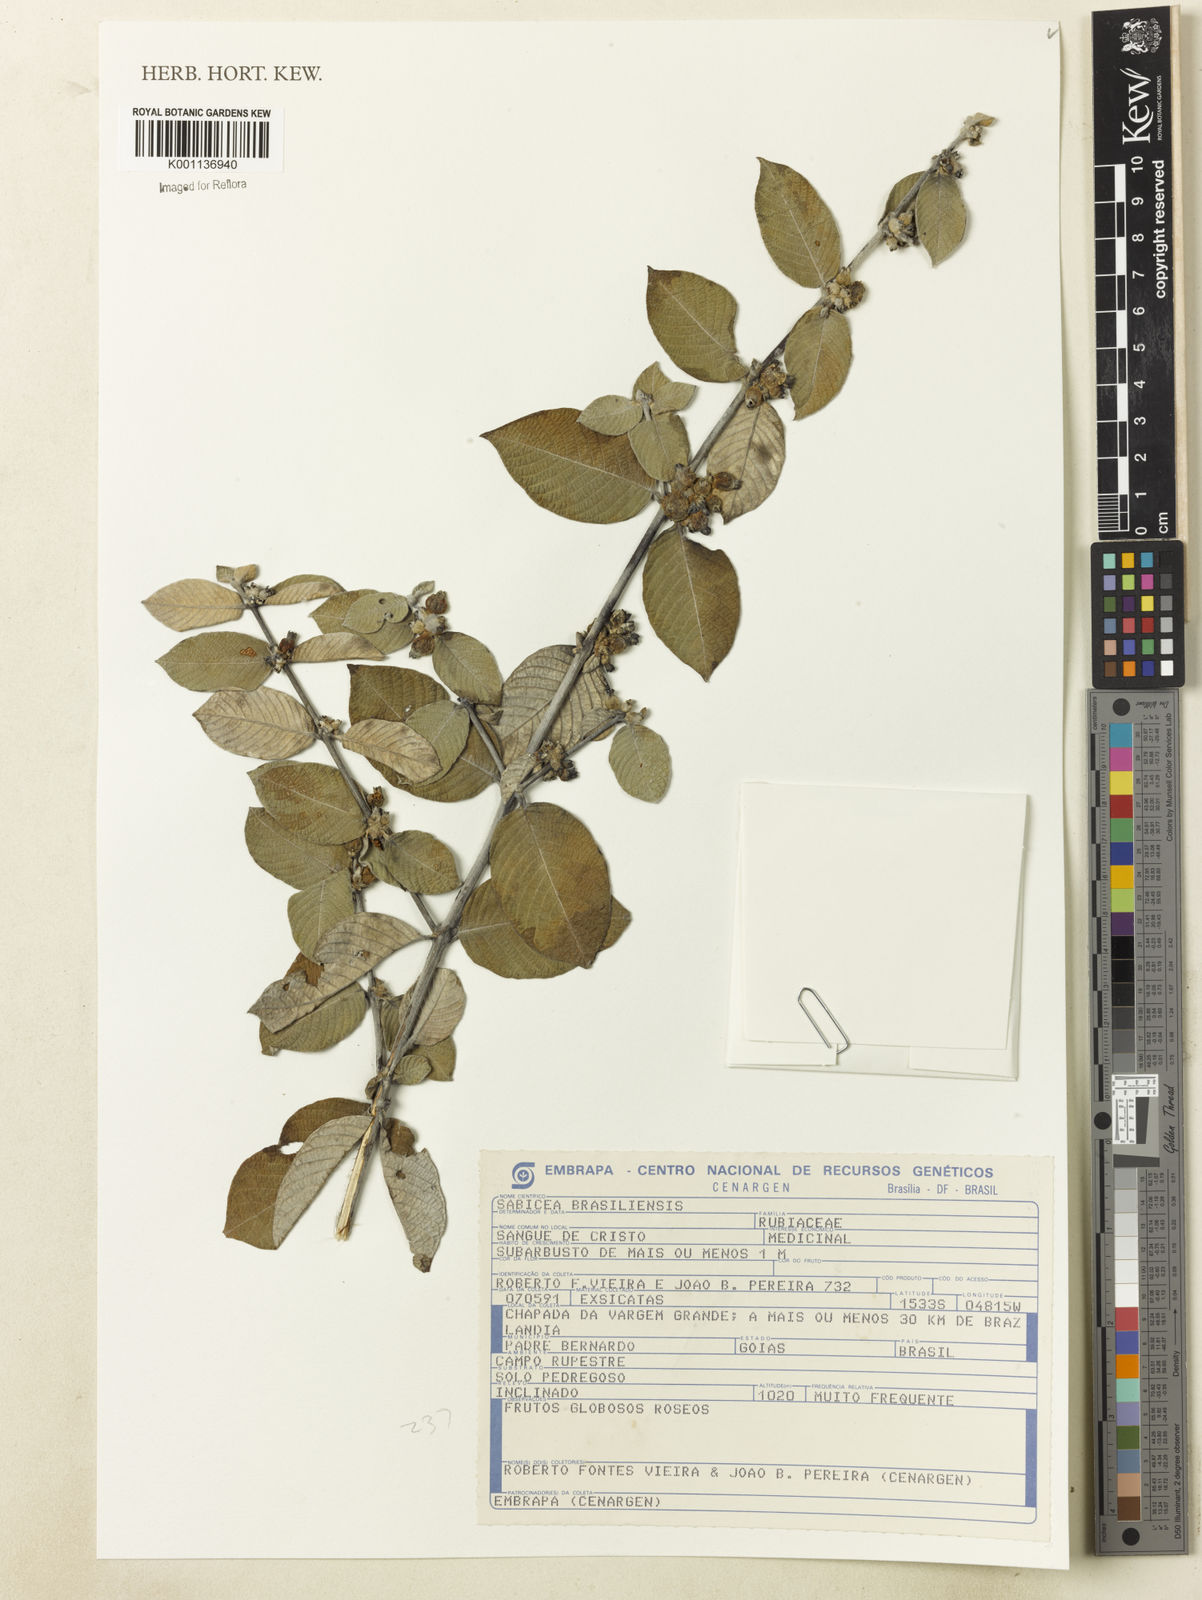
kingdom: Plantae
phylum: Tracheophyta
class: Magnoliopsida
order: Gentianales
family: Rubiaceae
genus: Sabicea
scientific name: Sabicea brasiliensis
